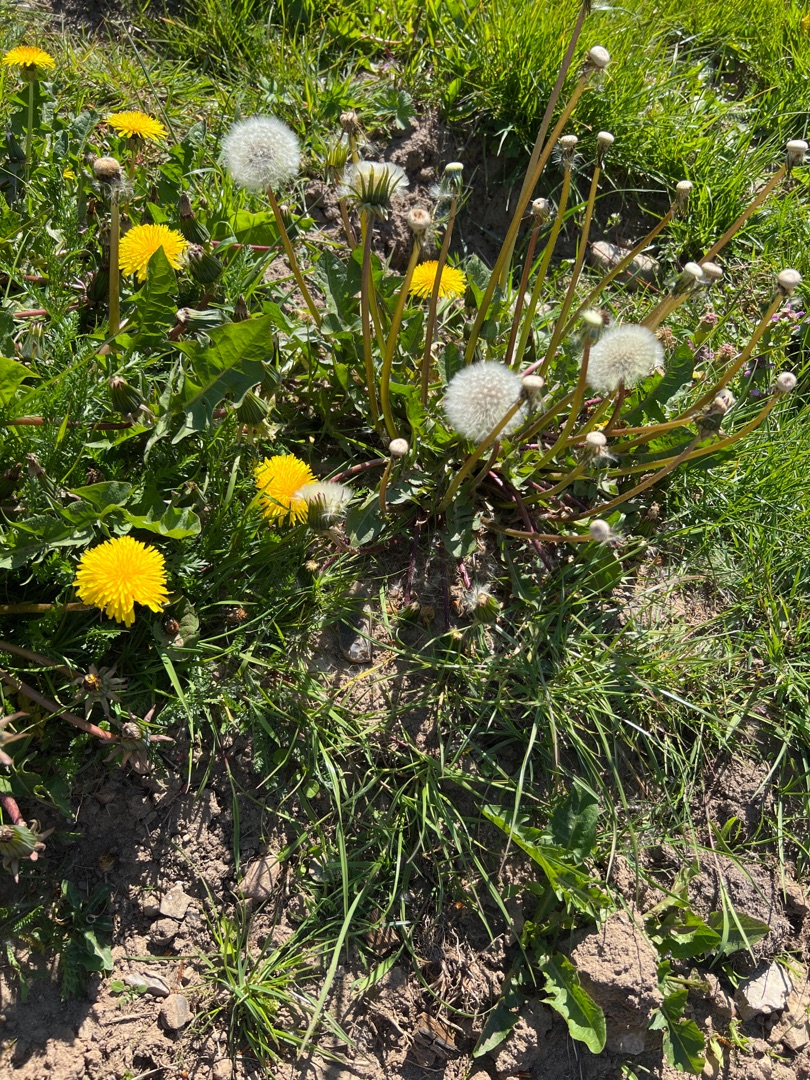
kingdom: Plantae
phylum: Tracheophyta
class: Magnoliopsida
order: Asterales
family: Asteraceae
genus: Taraxacum
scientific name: Taraxacum
